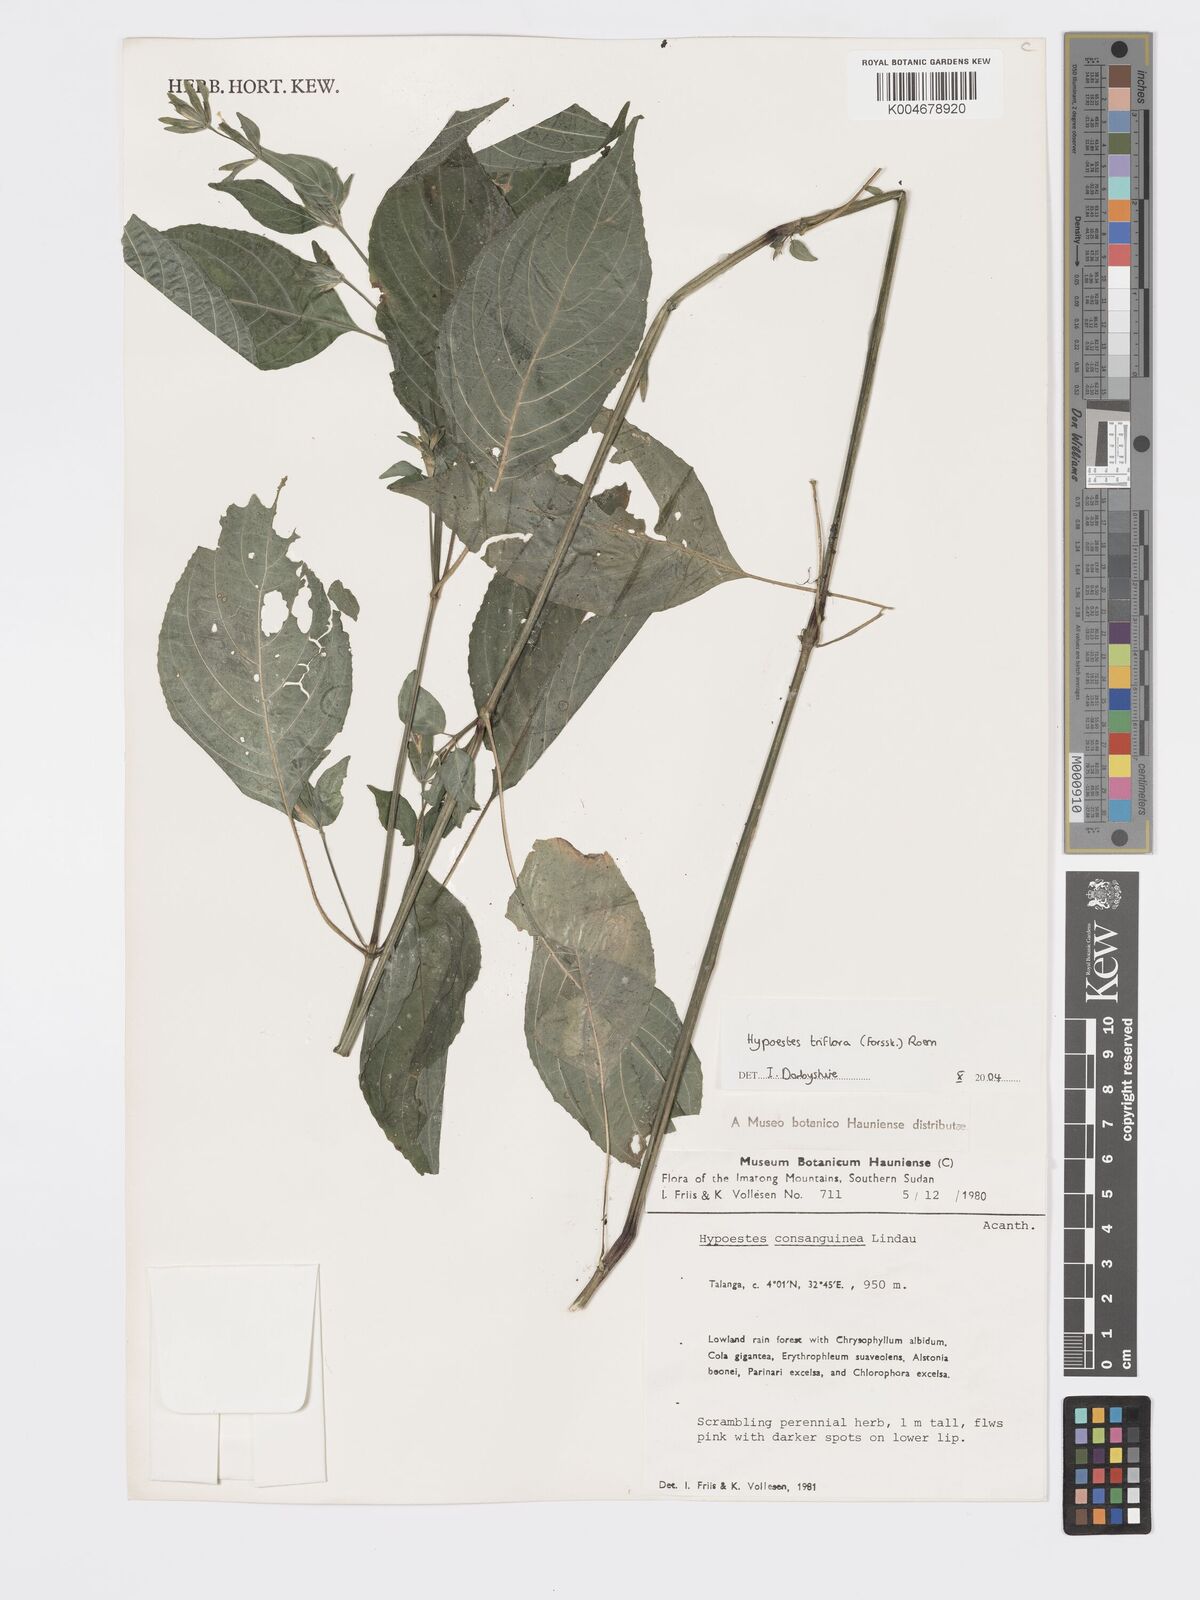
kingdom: Plantae
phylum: Tracheophyta
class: Magnoliopsida
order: Lamiales
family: Acanthaceae
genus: Hypoestes
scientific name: Hypoestes triflora
